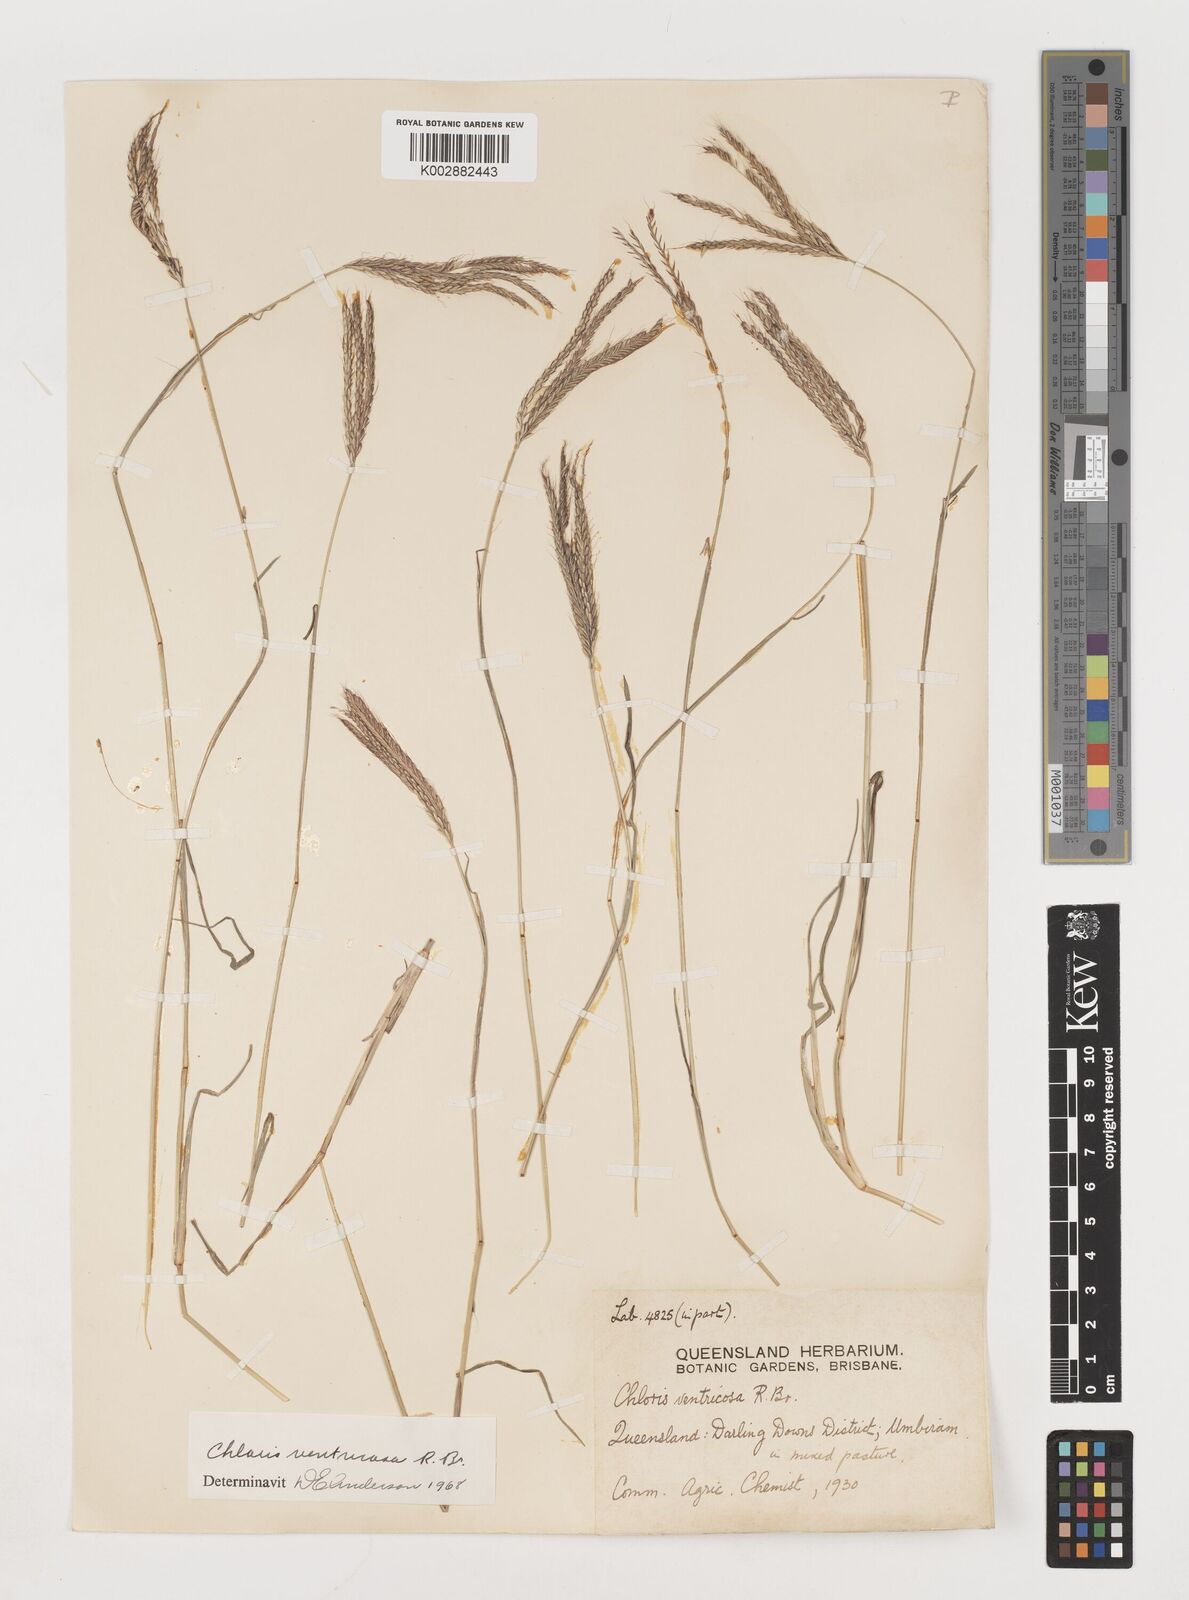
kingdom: Plantae
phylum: Tracheophyta
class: Liliopsida
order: Poales
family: Poaceae
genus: Chloris
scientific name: Chloris ventricosa
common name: Australian windmill grass
